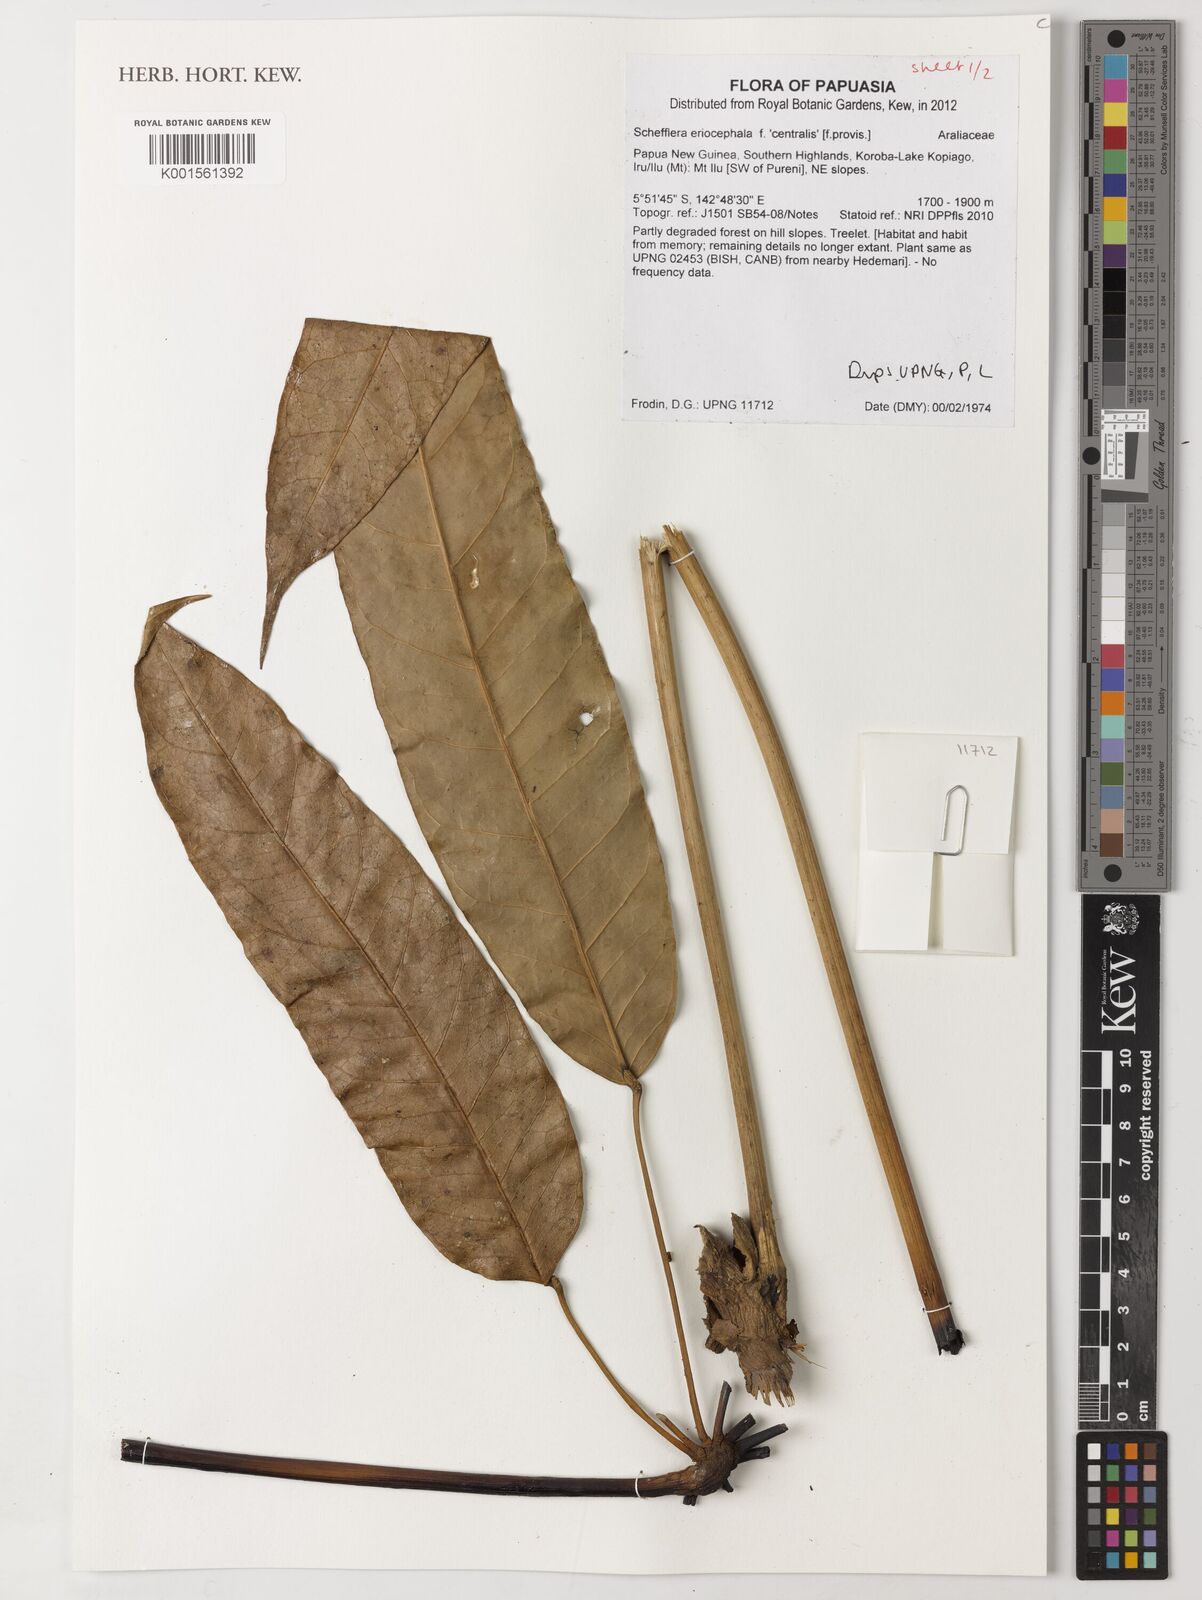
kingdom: Plantae
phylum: Tracheophyta
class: Magnoliopsida
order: Apiales
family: Araliaceae
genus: Schefflera
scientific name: Schefflera
